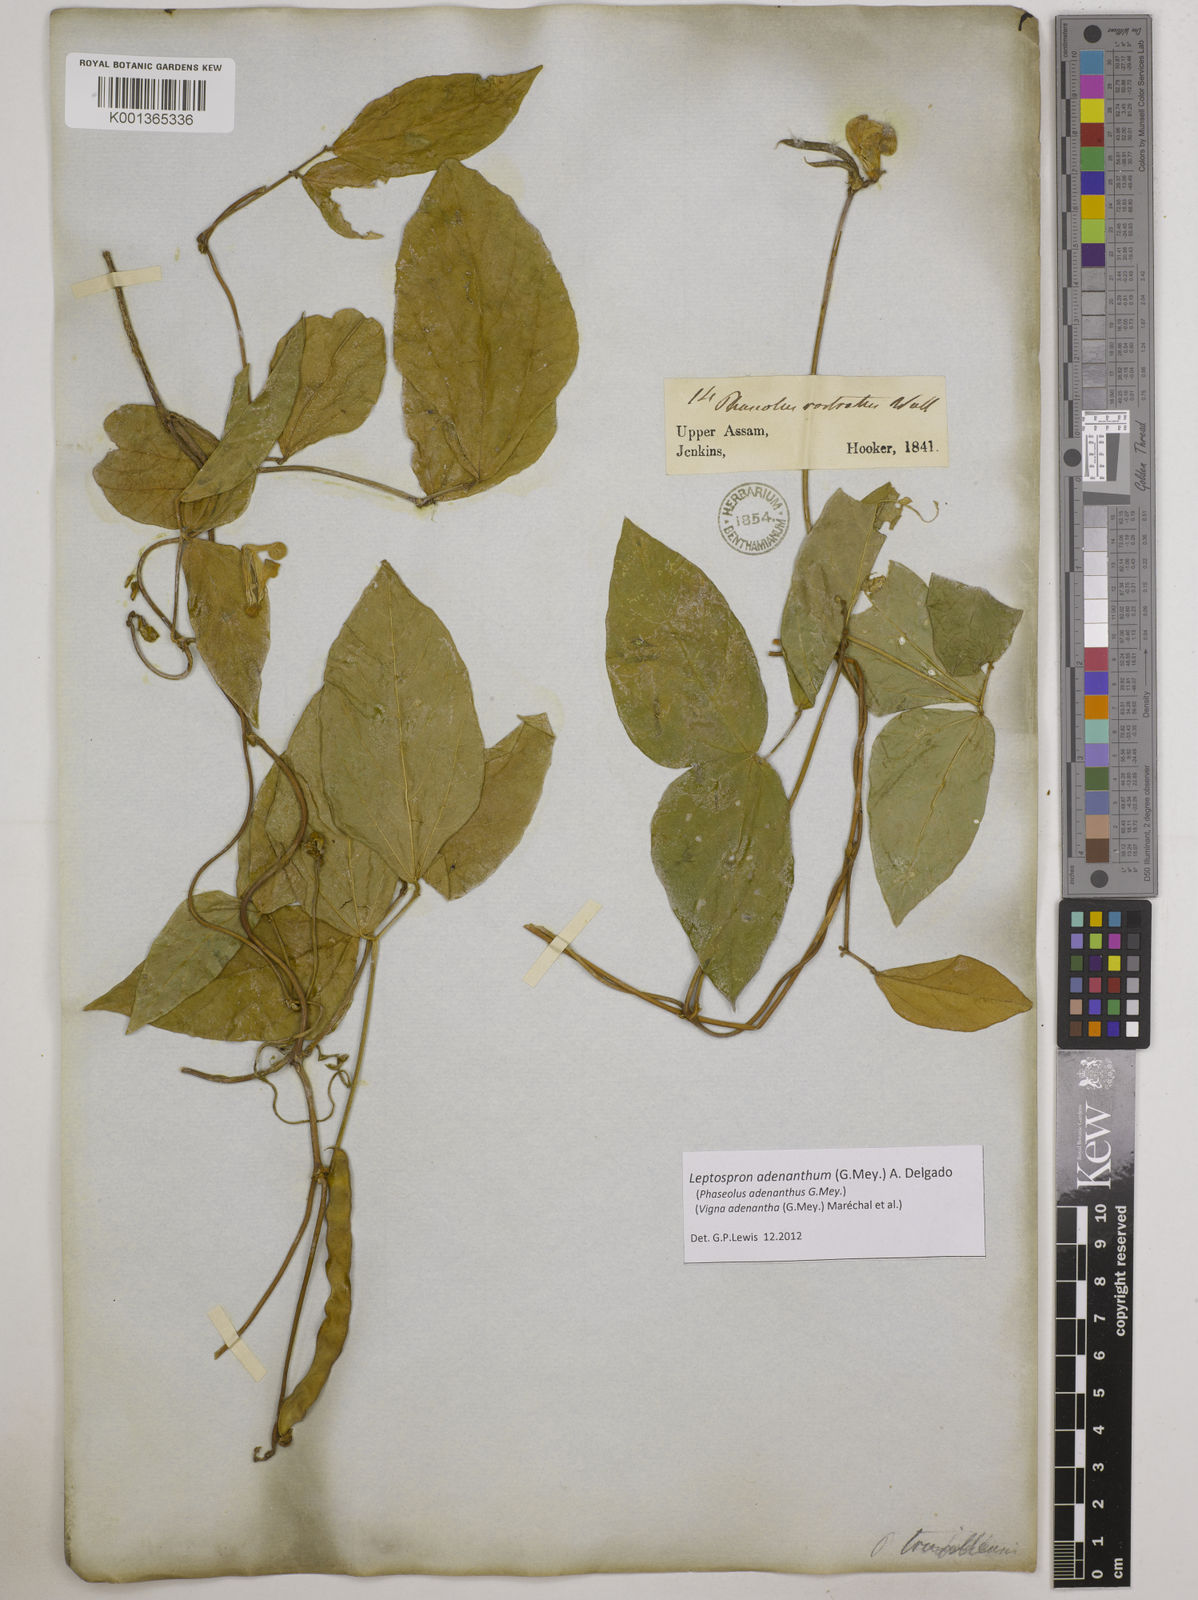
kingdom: Plantae
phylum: Tracheophyta
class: Magnoliopsida
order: Fabales
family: Fabaceae
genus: Leptospron
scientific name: Leptospron adenanthum
